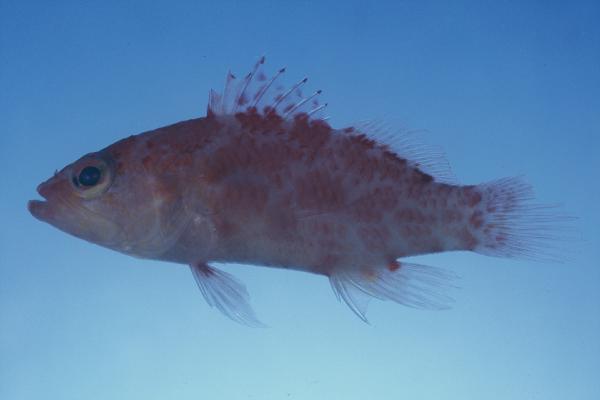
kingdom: Animalia
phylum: Chordata
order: Perciformes
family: Serranidae
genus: Plectranthias
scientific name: Plectranthias inermis
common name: Chequered perchlet
